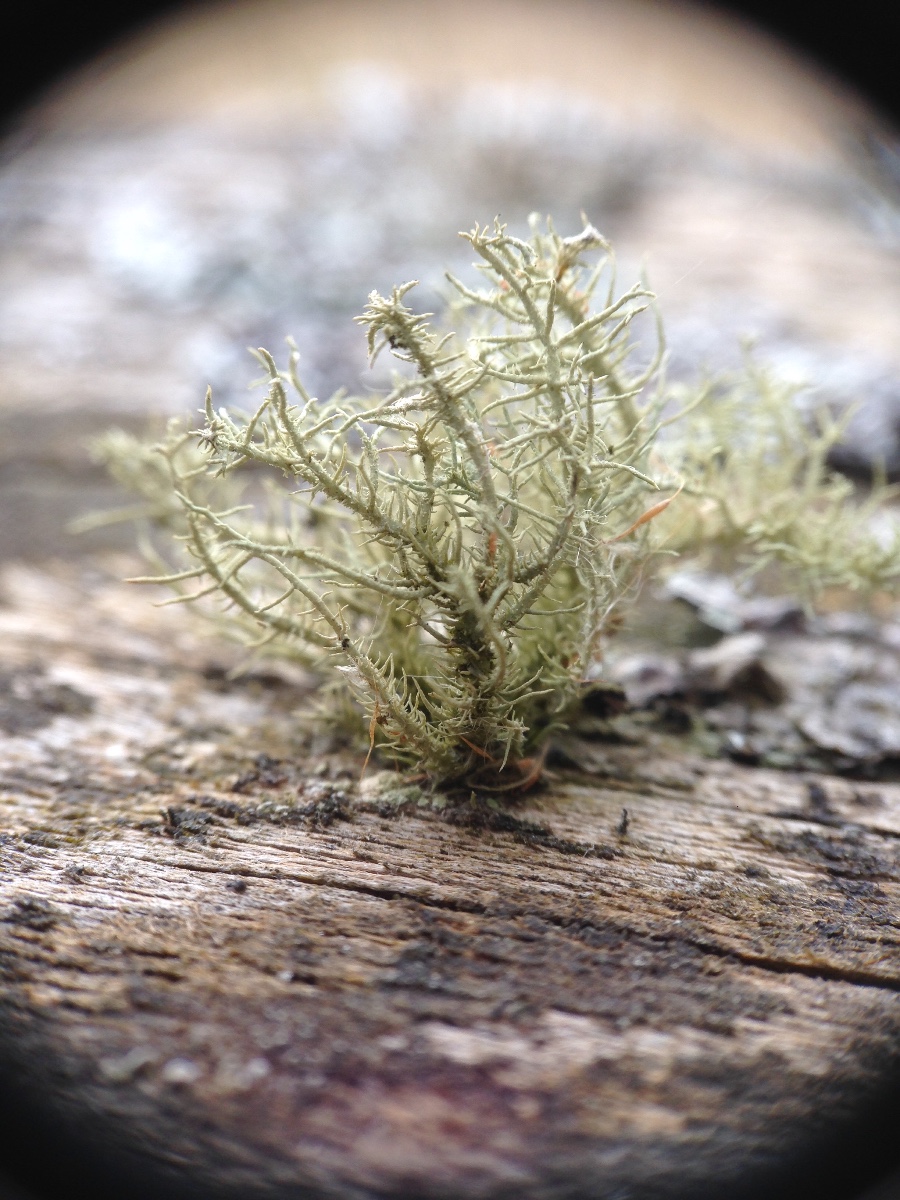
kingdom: Fungi
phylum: Ascomycota
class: Lecanoromycetes
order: Lecanorales
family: Parmeliaceae
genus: Usnea
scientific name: Usnea hirta
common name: liden skæglav
